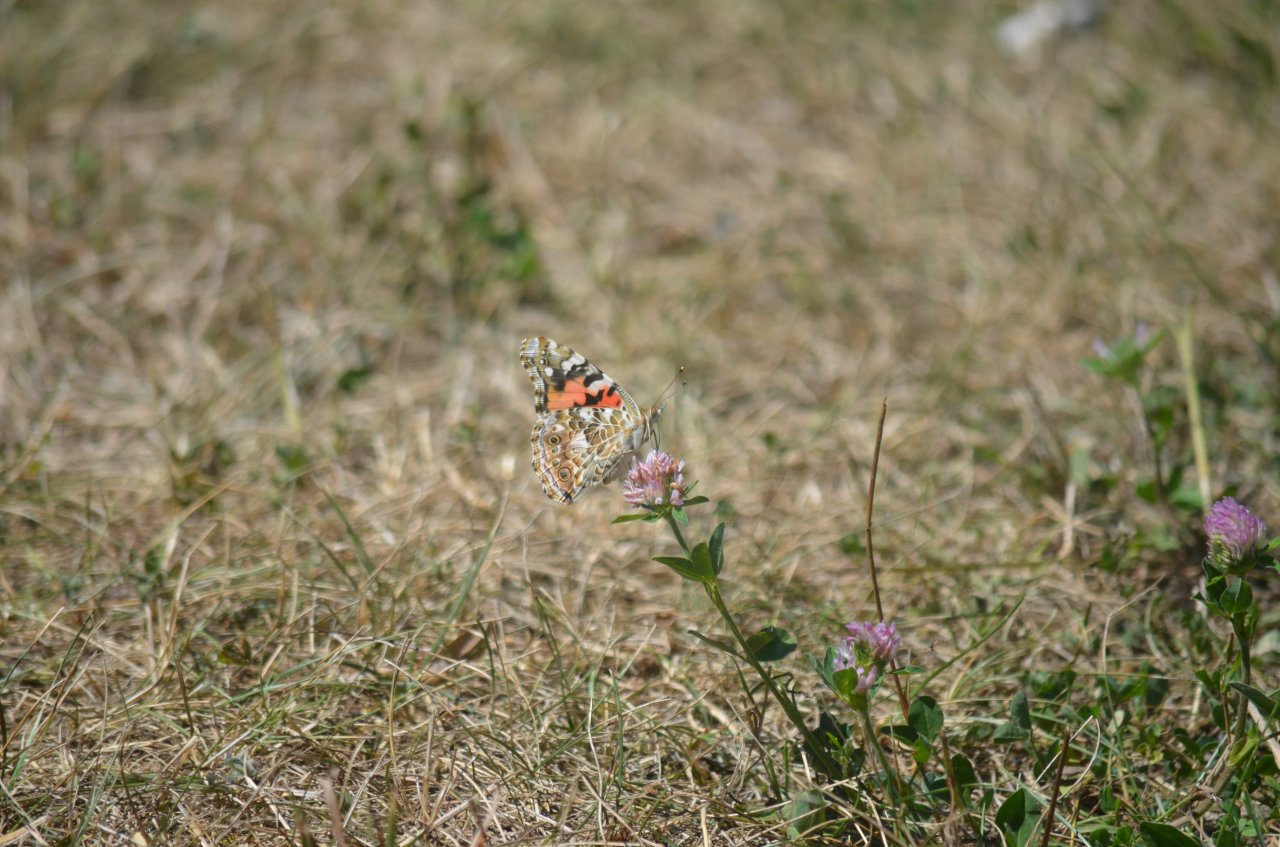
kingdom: Animalia
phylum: Arthropoda
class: Insecta
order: Lepidoptera
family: Nymphalidae
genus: Vanessa
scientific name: Vanessa cardui
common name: Painted Lady
